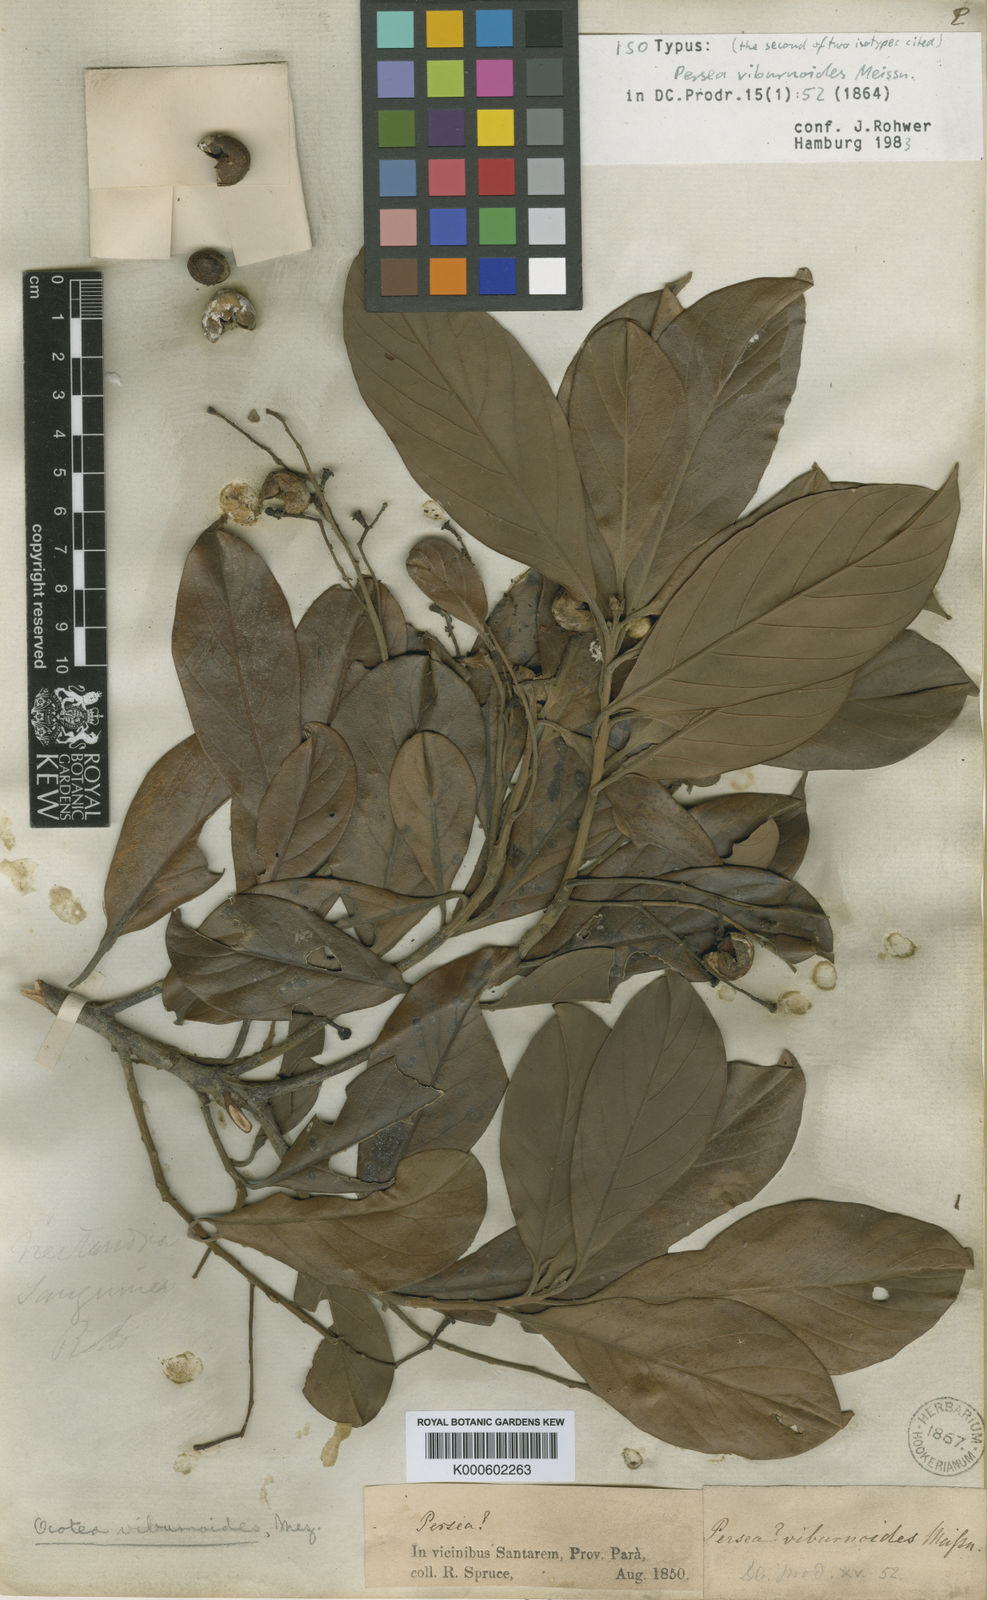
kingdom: Plantae
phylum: Tracheophyta
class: Magnoliopsida
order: Laurales
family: Lauraceae
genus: Ocotea
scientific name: Ocotea viburnoides
